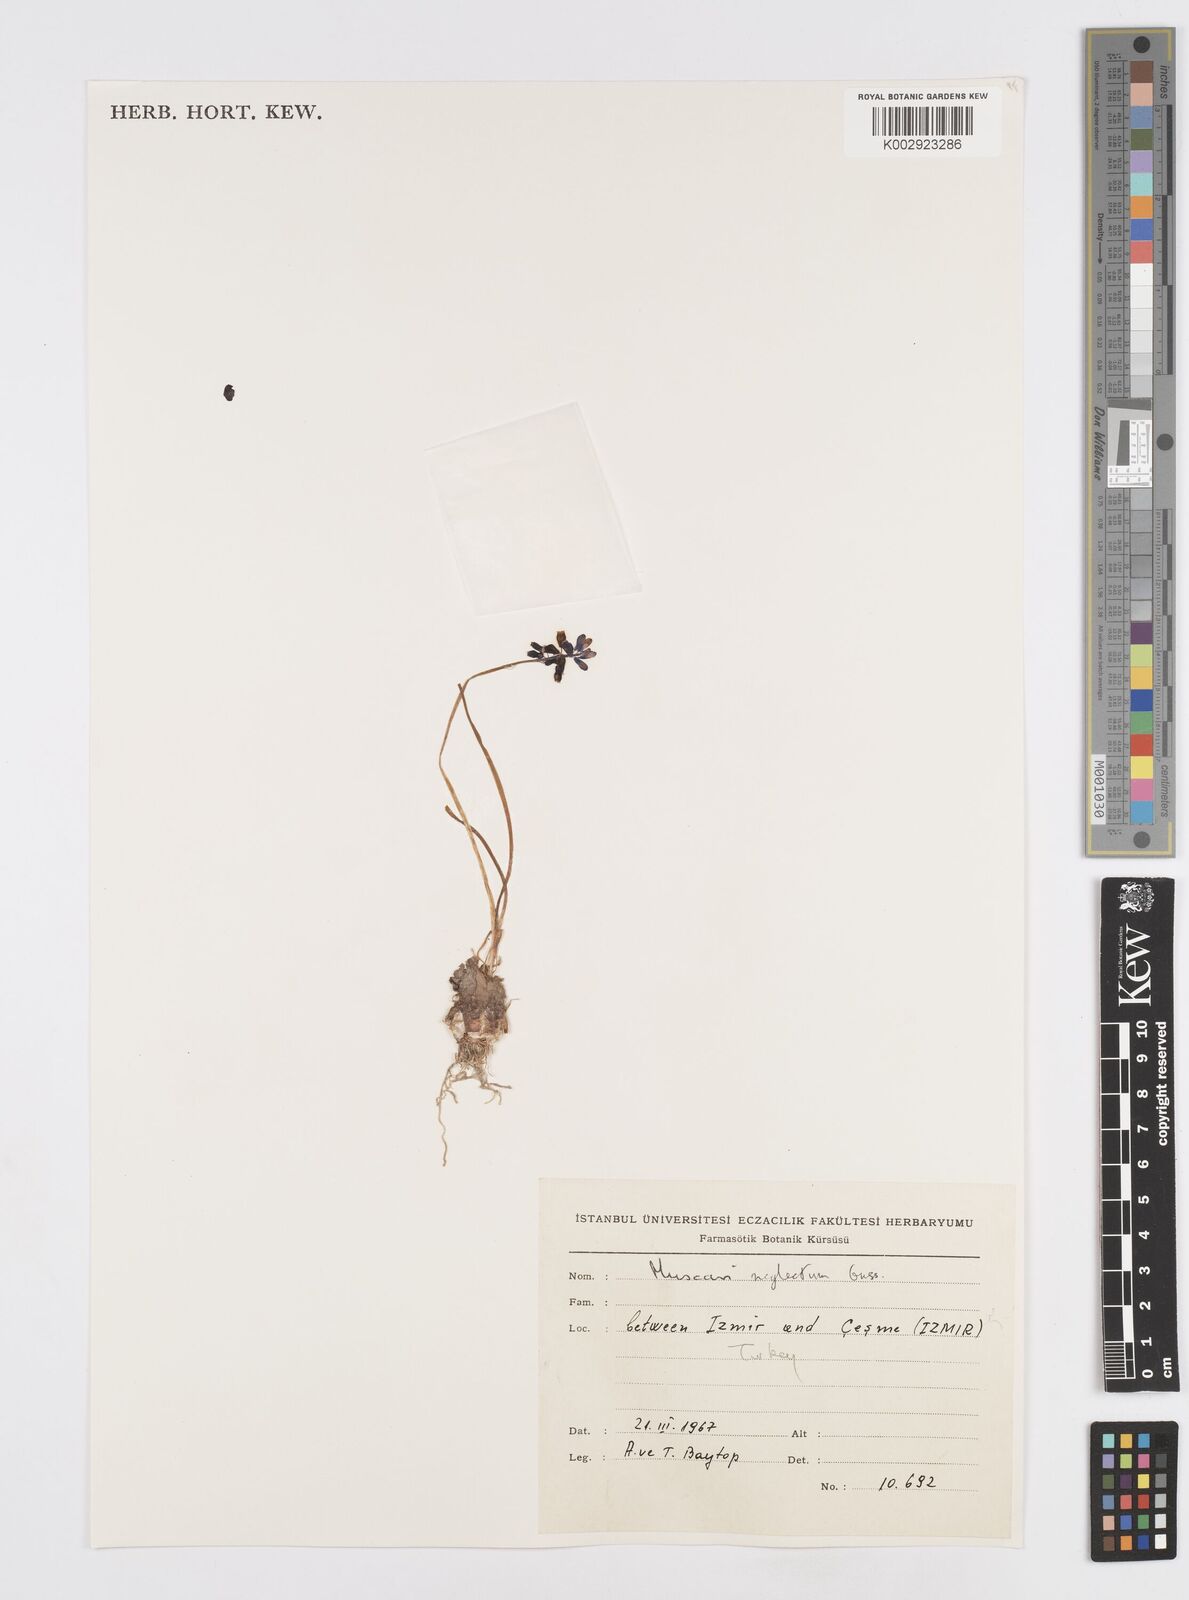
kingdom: Plantae
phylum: Tracheophyta
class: Liliopsida
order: Asparagales
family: Asparagaceae
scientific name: Asparagaceae
